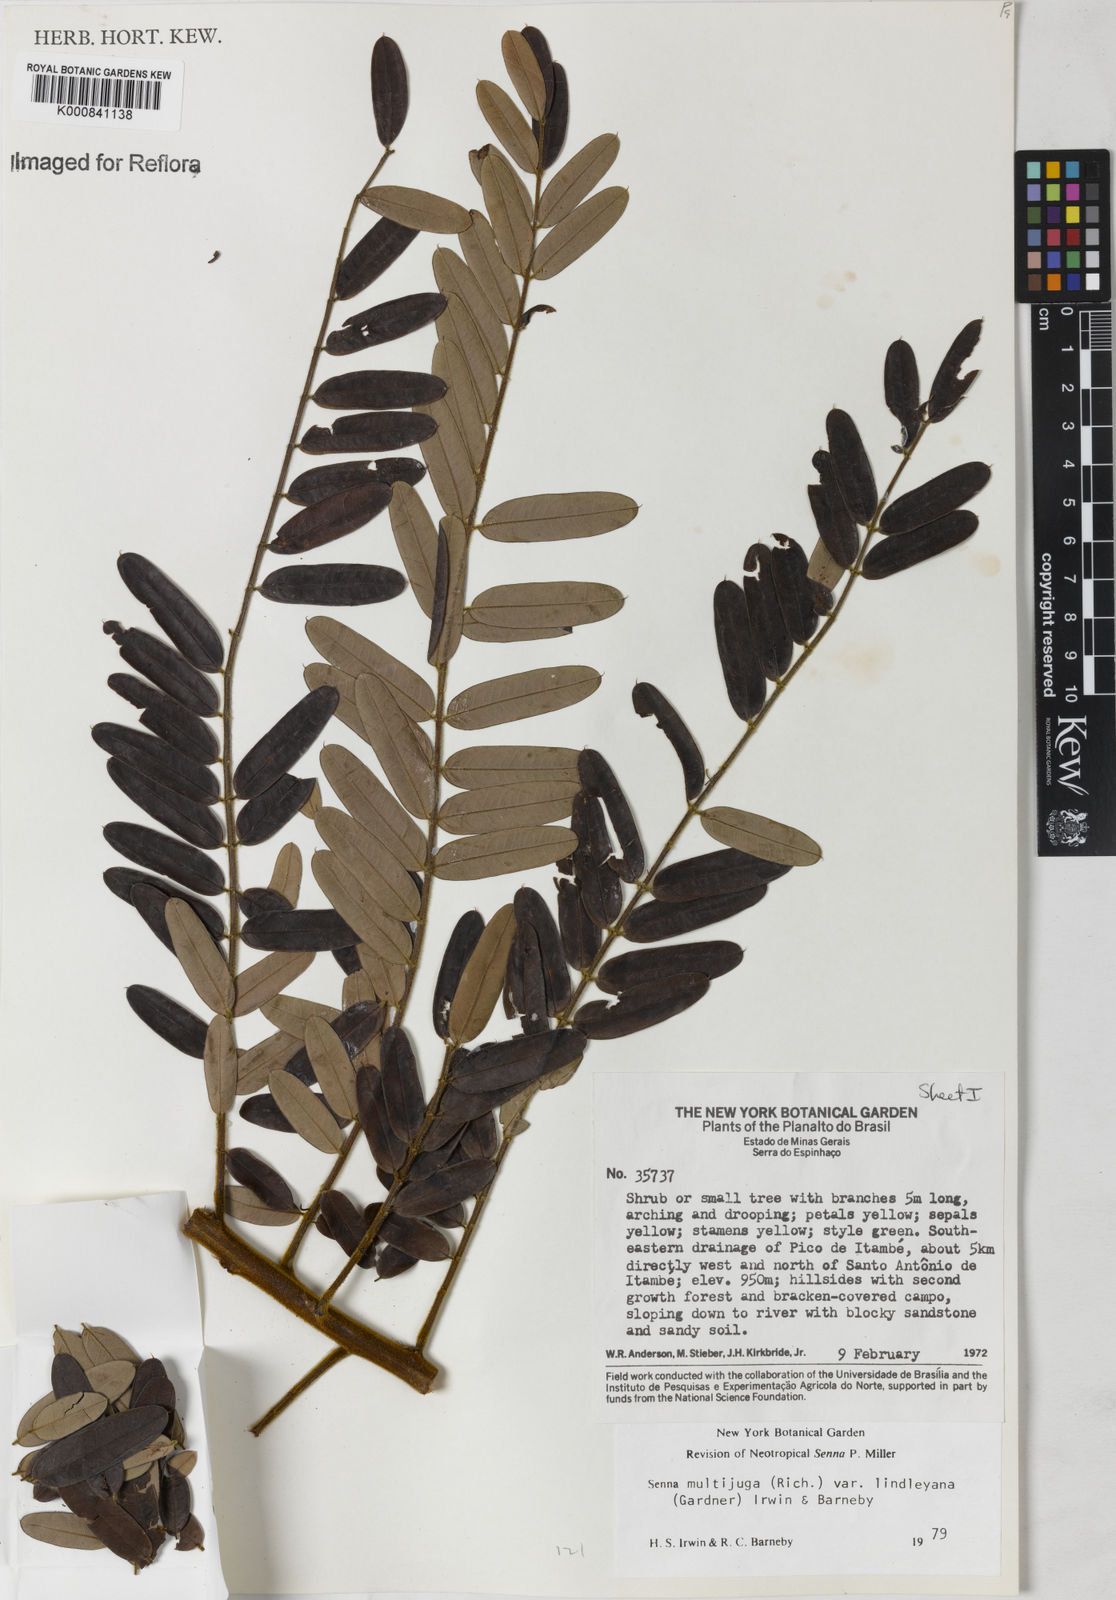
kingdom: Plantae
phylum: Tracheophyta
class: Magnoliopsida
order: Fabales
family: Fabaceae
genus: Senna
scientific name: Senna multijuga
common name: False sicklepod
